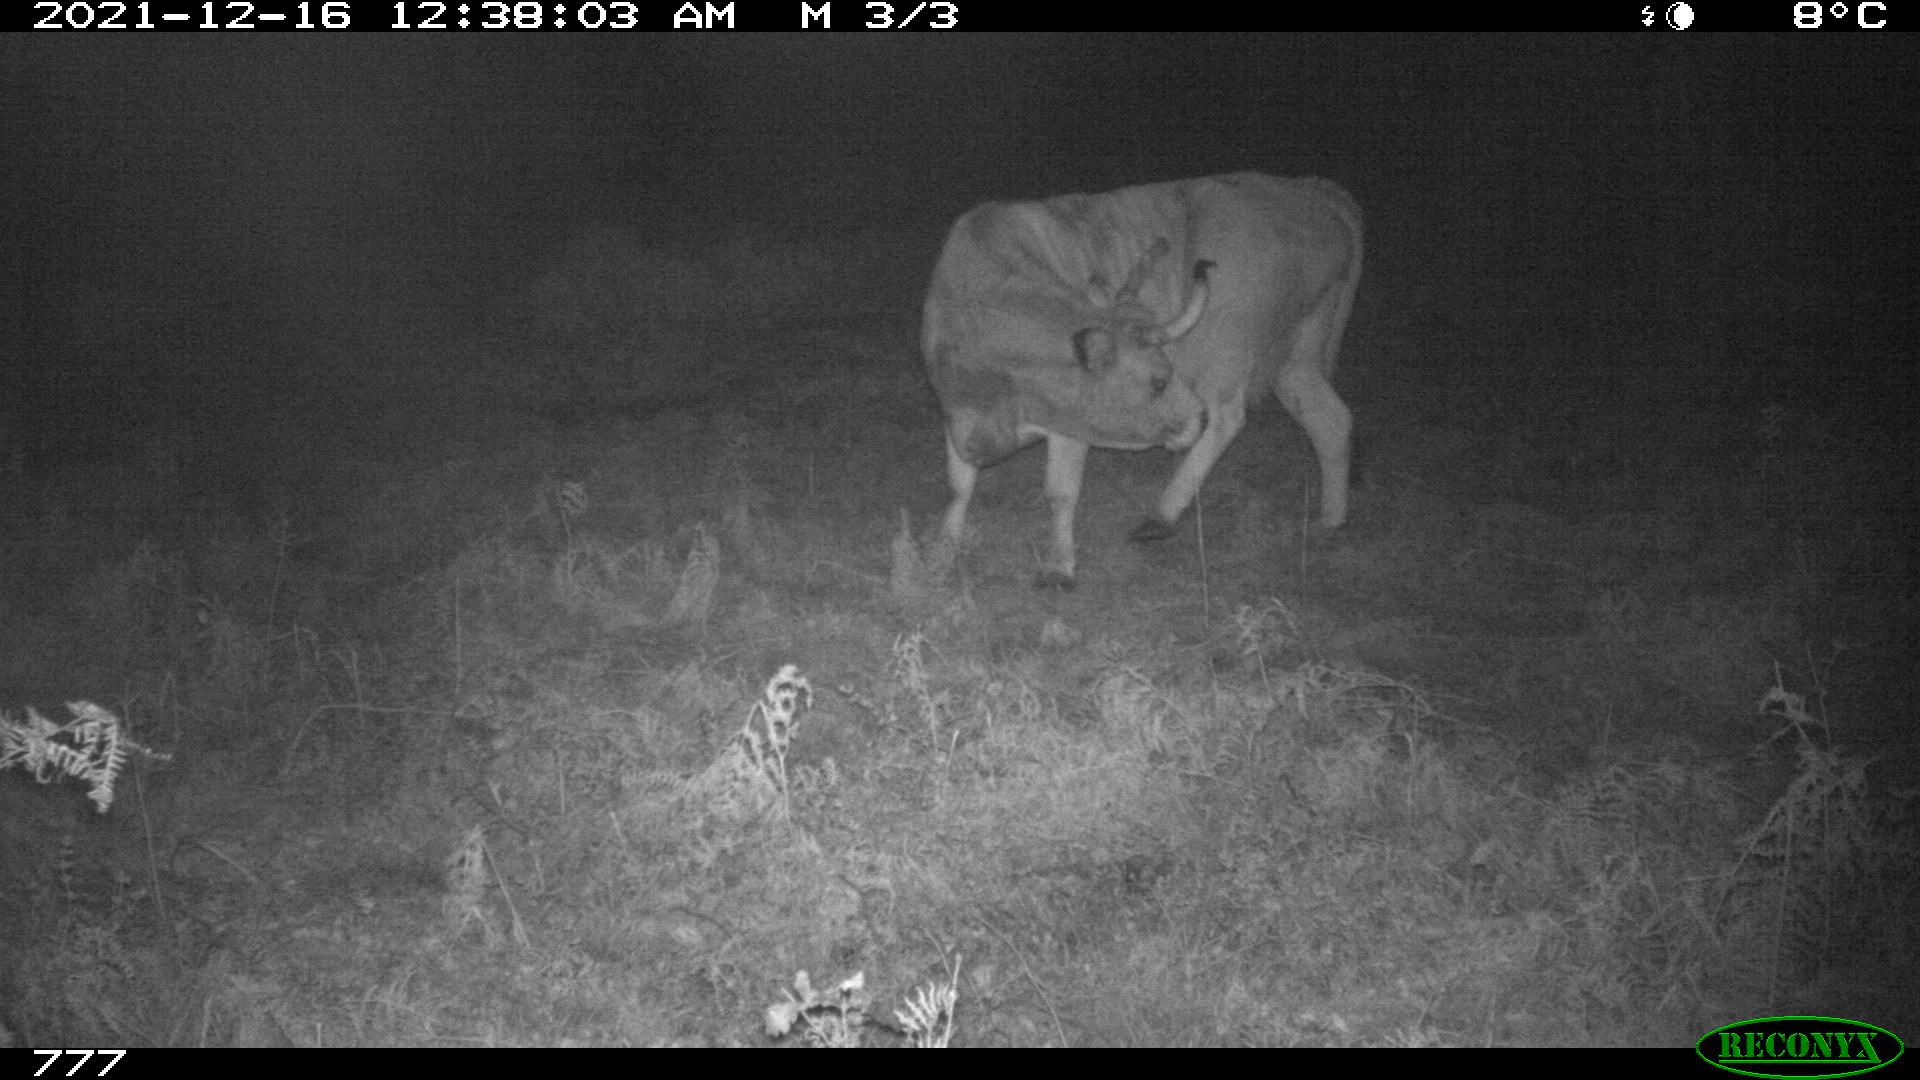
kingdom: Animalia
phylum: Chordata
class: Mammalia
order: Artiodactyla
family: Bovidae
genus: Bos
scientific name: Bos taurus
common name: Domesticated cattle
